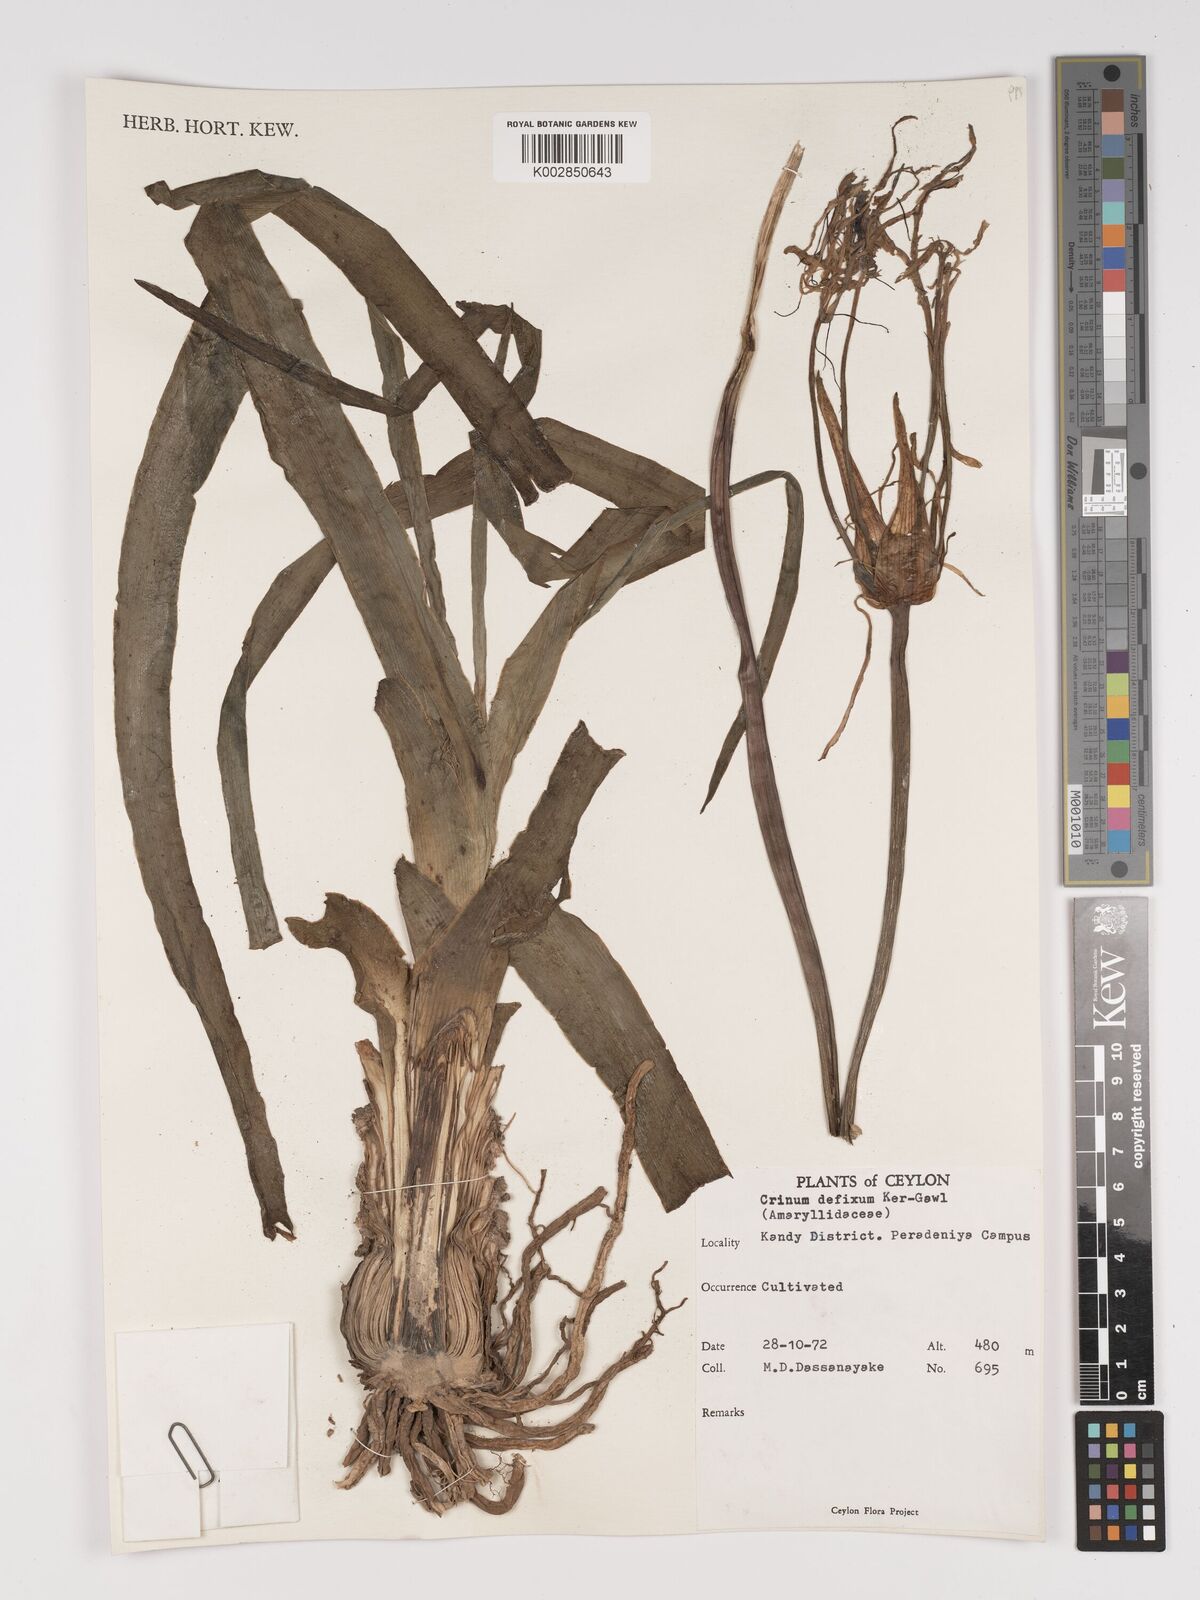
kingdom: Plantae
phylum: Tracheophyta
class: Liliopsida
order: Asparagales
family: Amaryllidaceae
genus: Crinum
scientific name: Crinum defixum
